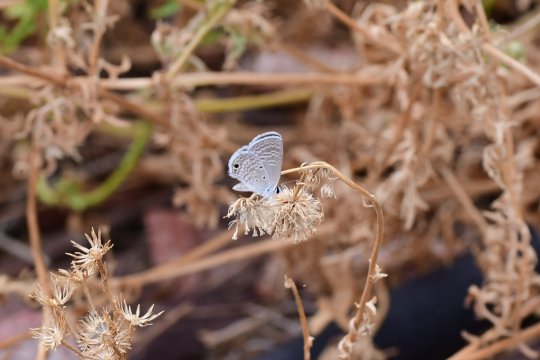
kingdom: Animalia
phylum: Arthropoda
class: Insecta
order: Lepidoptera
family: Lycaenidae
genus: Hemiargus
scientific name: Hemiargus ceraunus
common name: Ceraunus Blue
